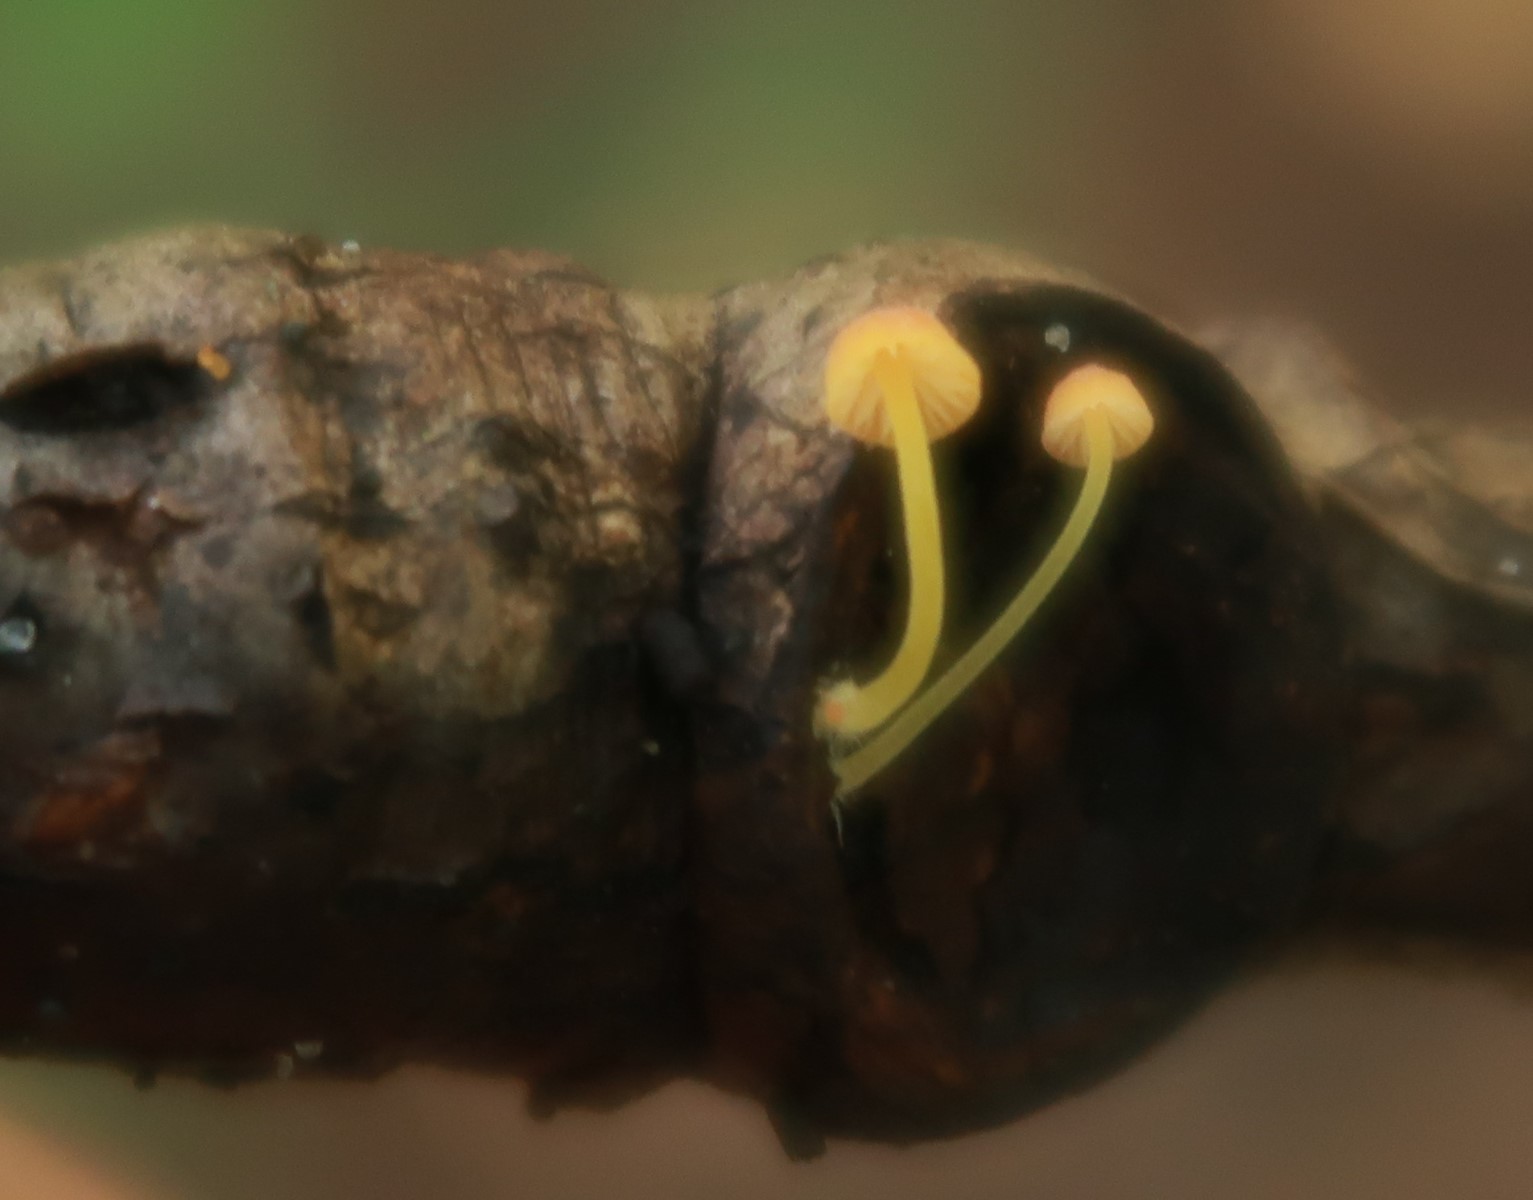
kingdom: Fungi
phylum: Basidiomycota
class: Agaricomycetes
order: Agaricales
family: Mycenaceae
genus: Mycena
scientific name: Mycena acicula
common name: orange huesvamp
